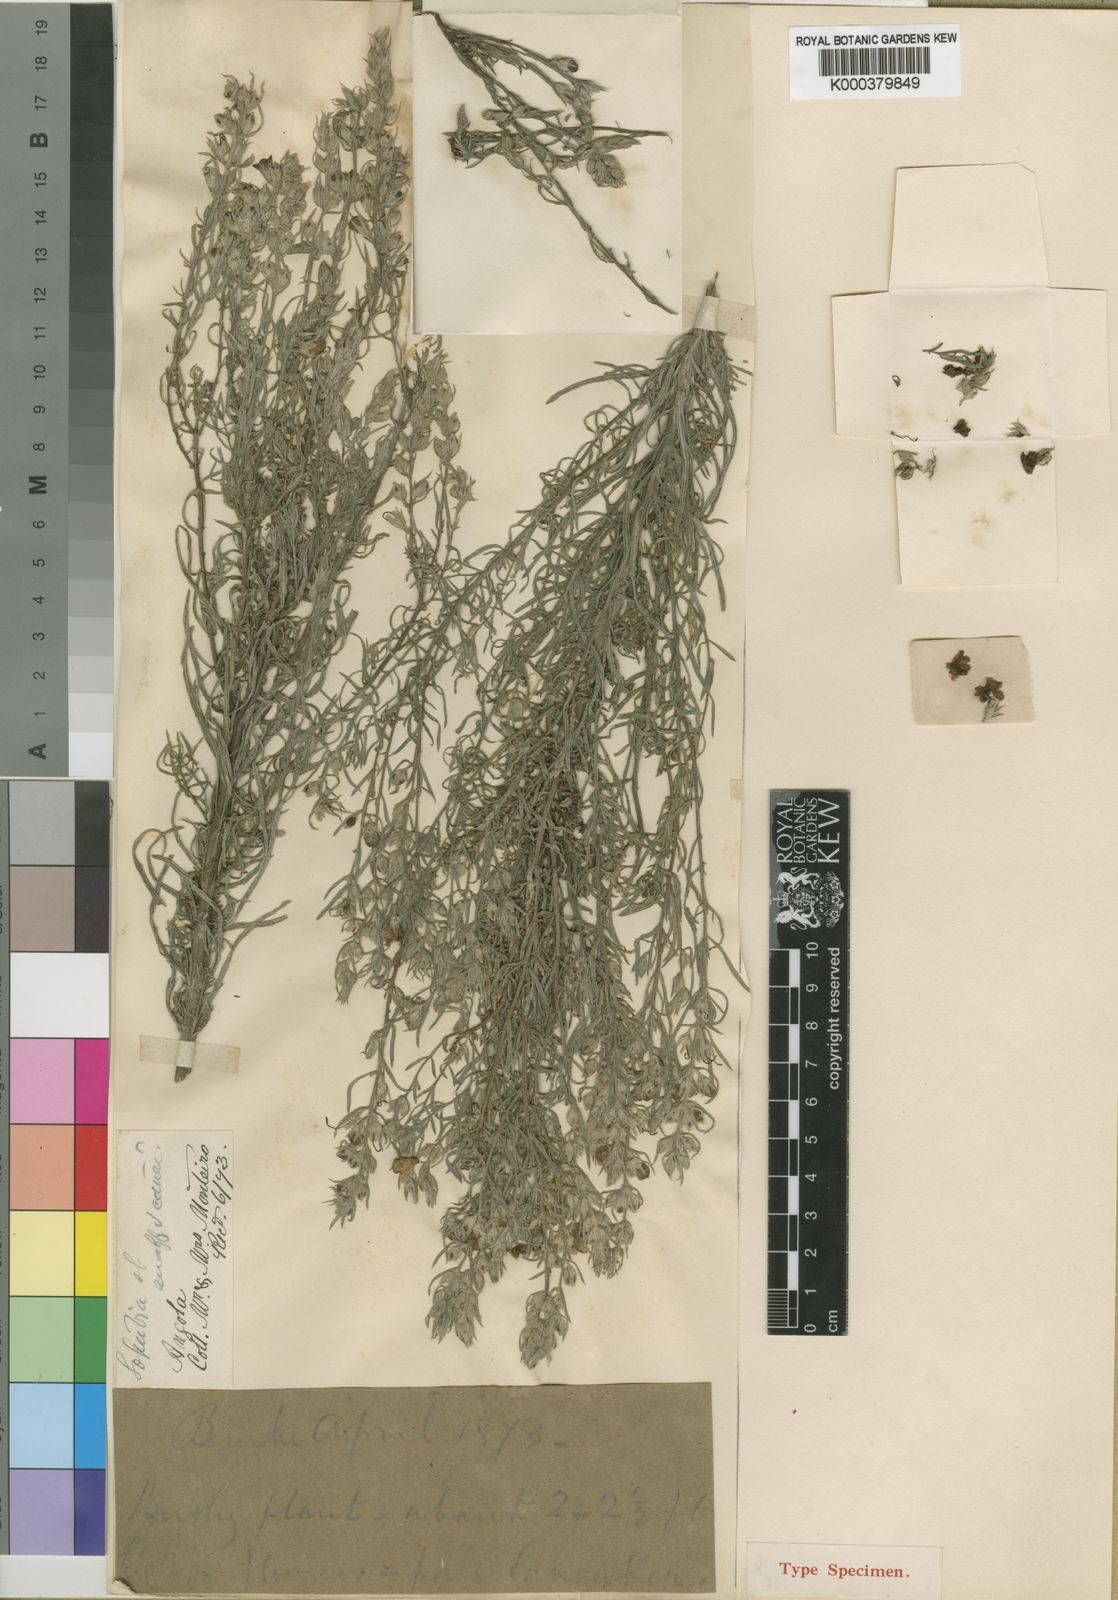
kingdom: Plantae
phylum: Tracheophyta
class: Magnoliopsida
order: Lamiales
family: Orobanchaceae
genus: Sopubia
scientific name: Sopubia lanata
